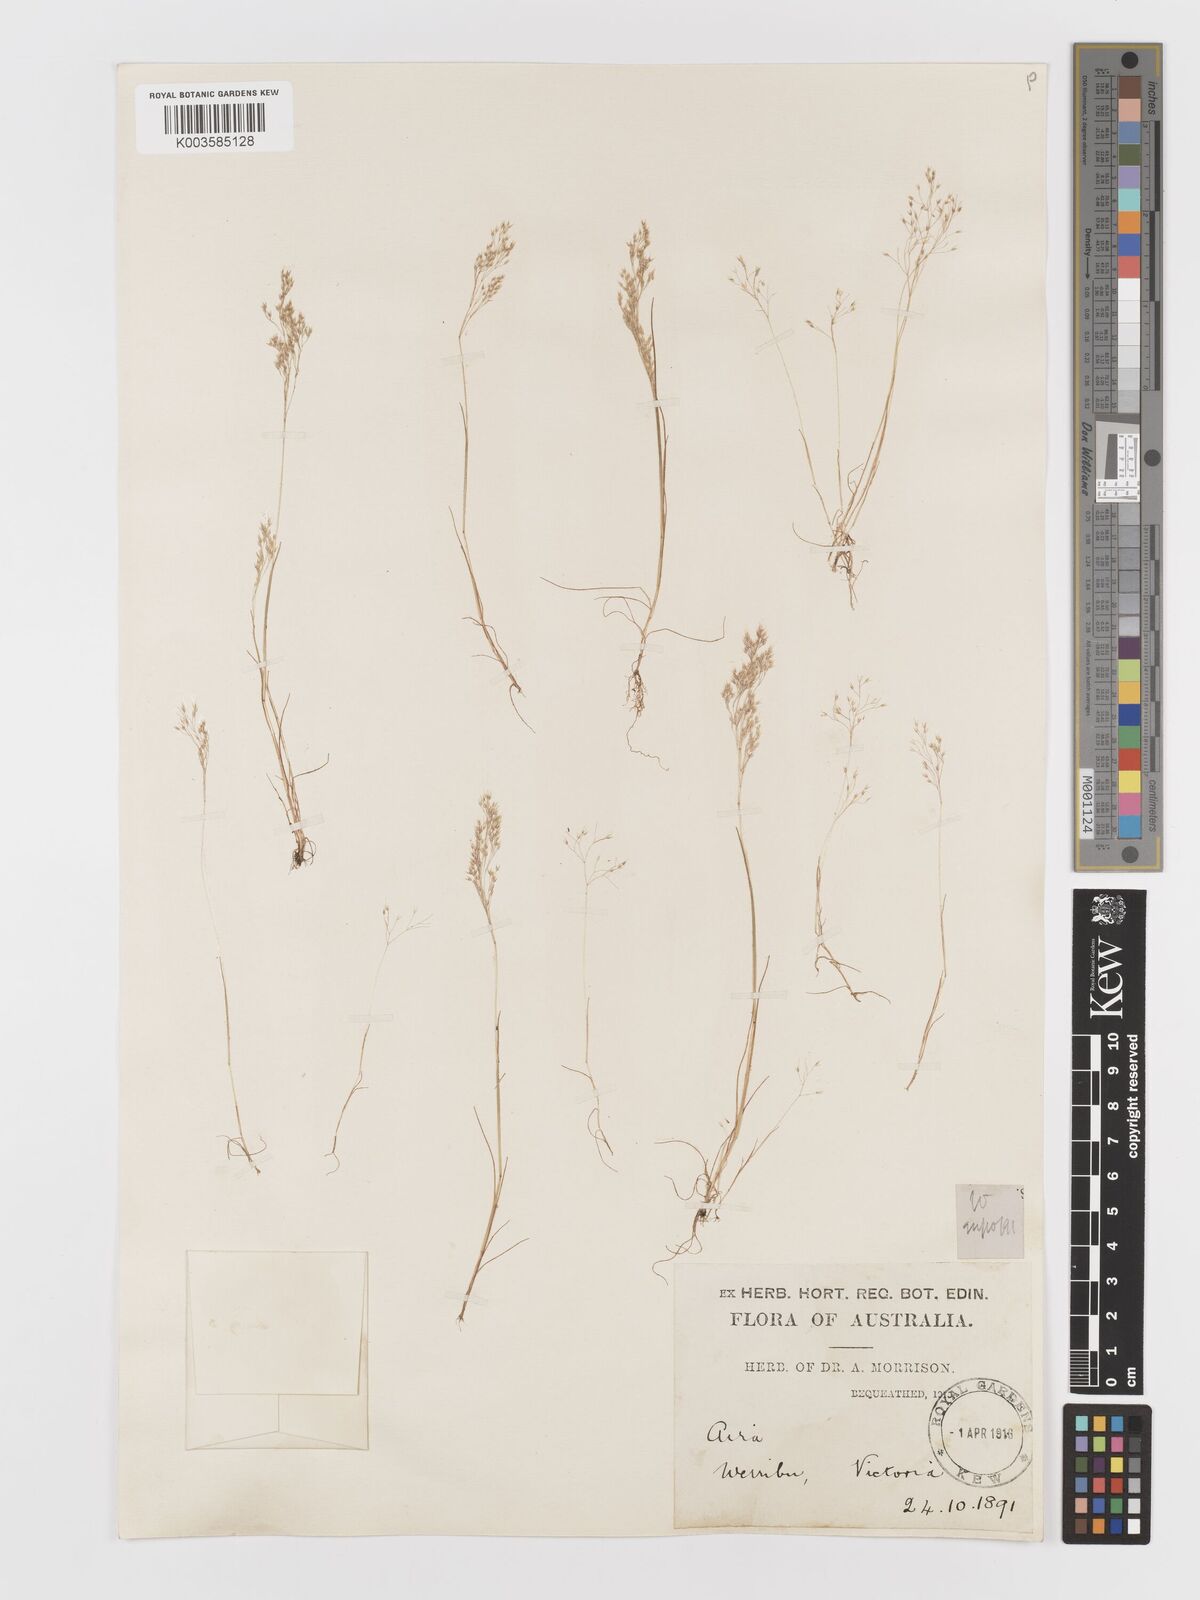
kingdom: Plantae
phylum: Tracheophyta
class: Liliopsida
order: Poales
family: Poaceae
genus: Aira
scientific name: Aira cupaniana
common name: Silver hairgrass
